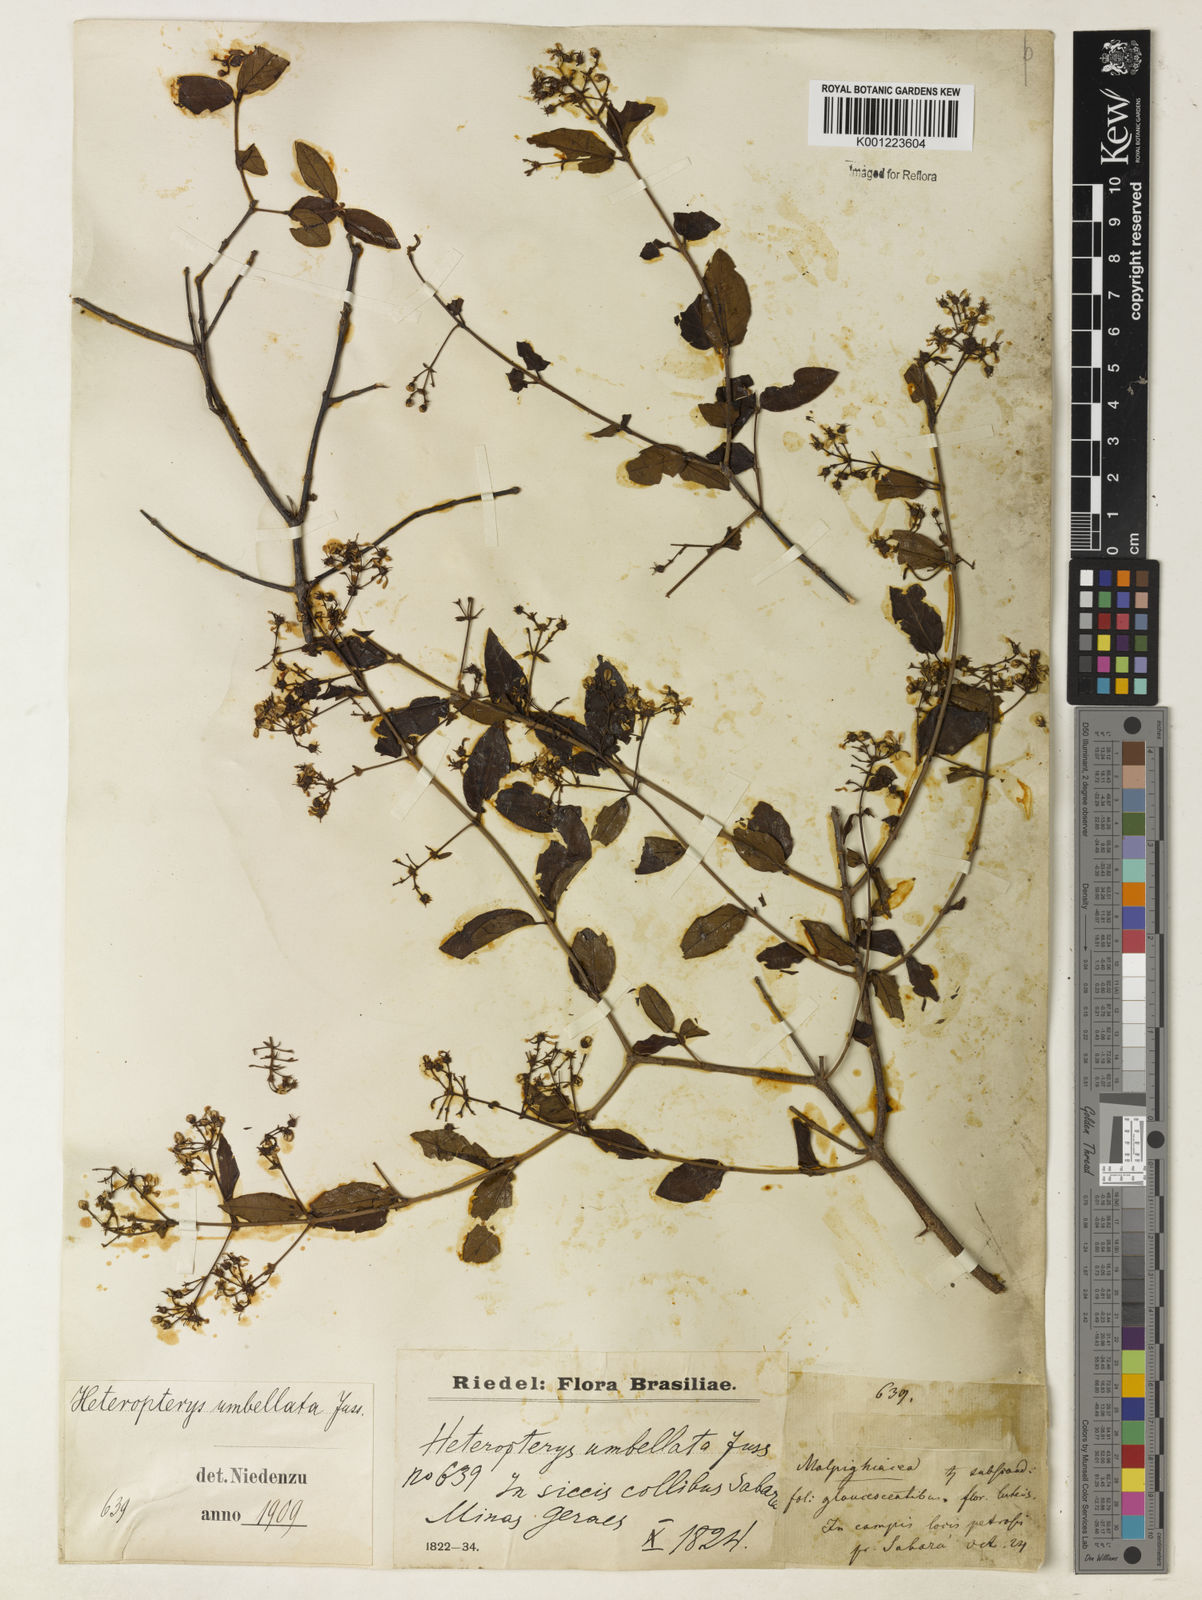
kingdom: Plantae
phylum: Tracheophyta
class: Magnoliopsida
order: Malpighiales
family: Malpighiaceae
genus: Heteropterys
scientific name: Heteropterys umbellata
